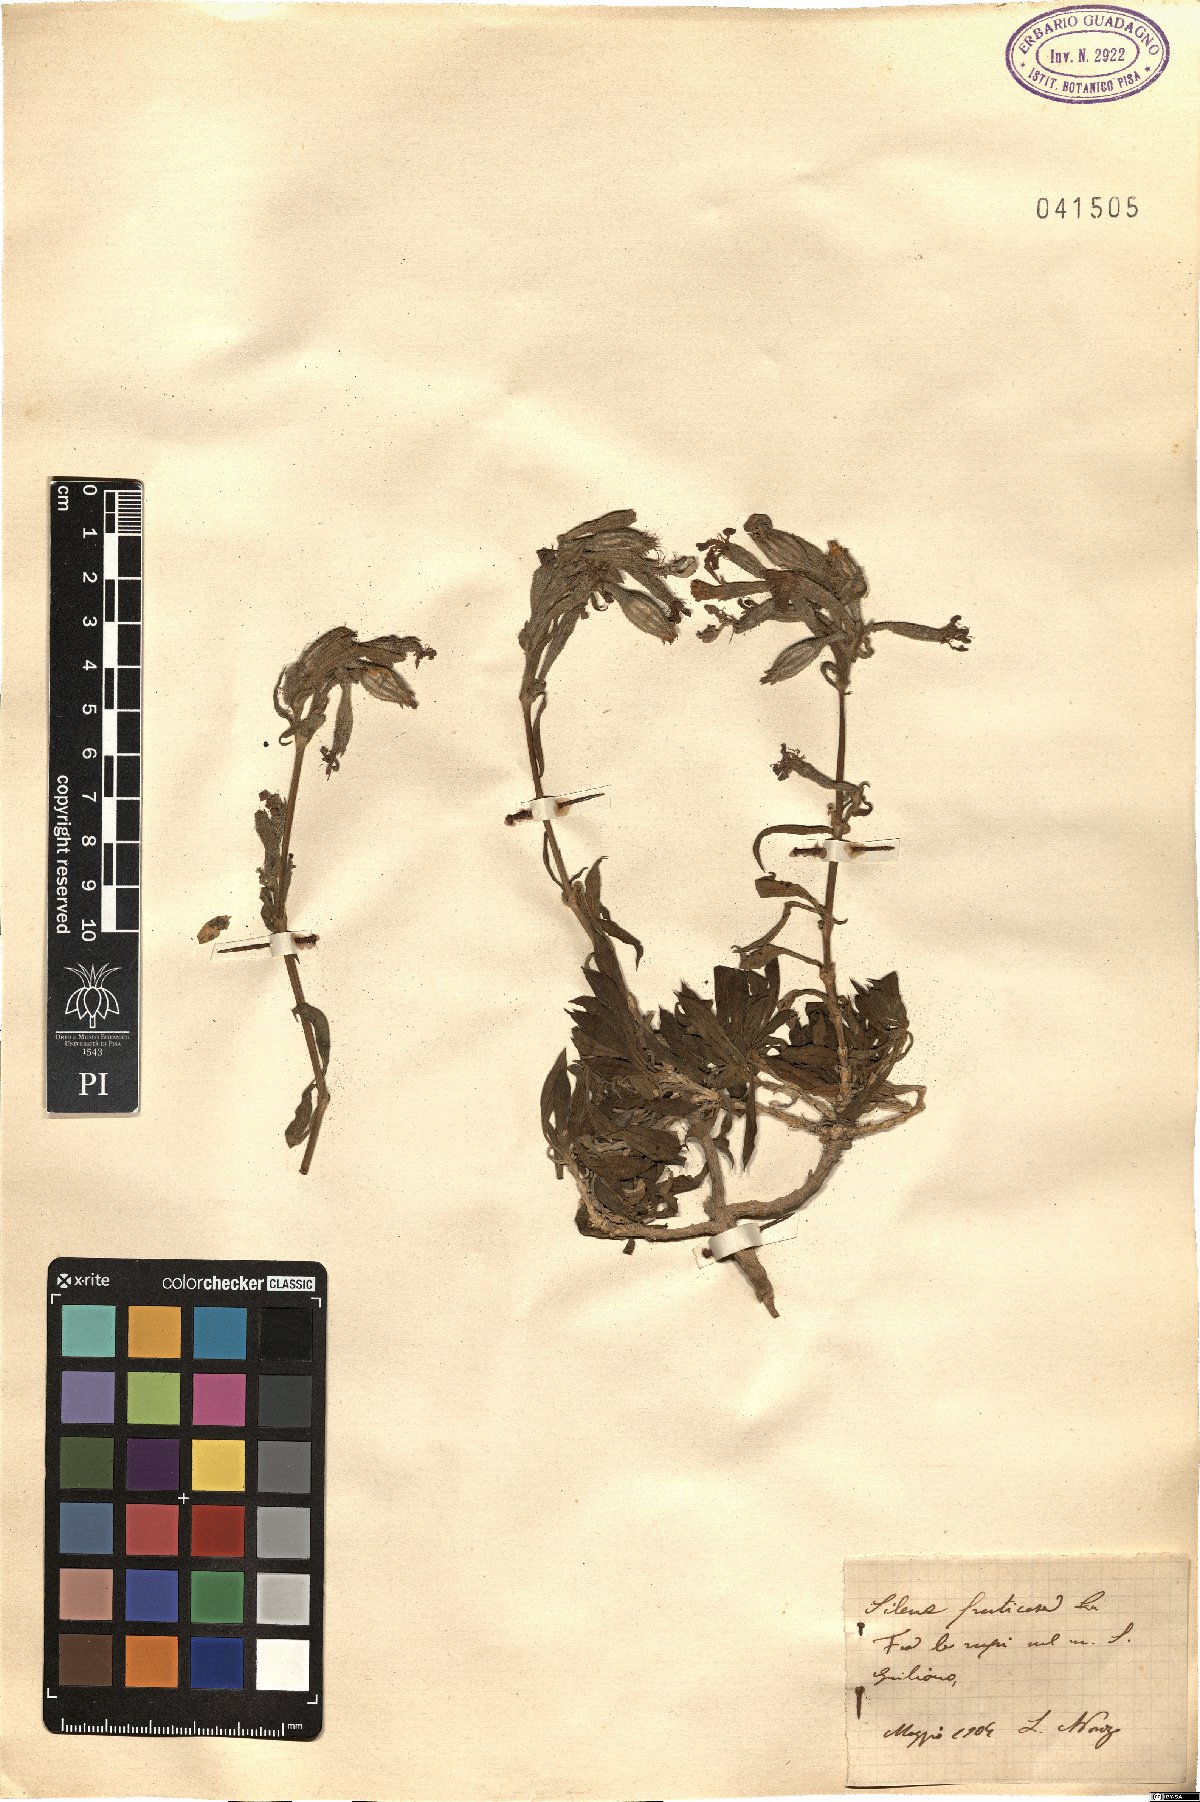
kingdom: Plantae
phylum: Tracheophyta
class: Magnoliopsida
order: Caryophyllales
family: Caryophyllaceae
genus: Silene
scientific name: Silene fruticosa
